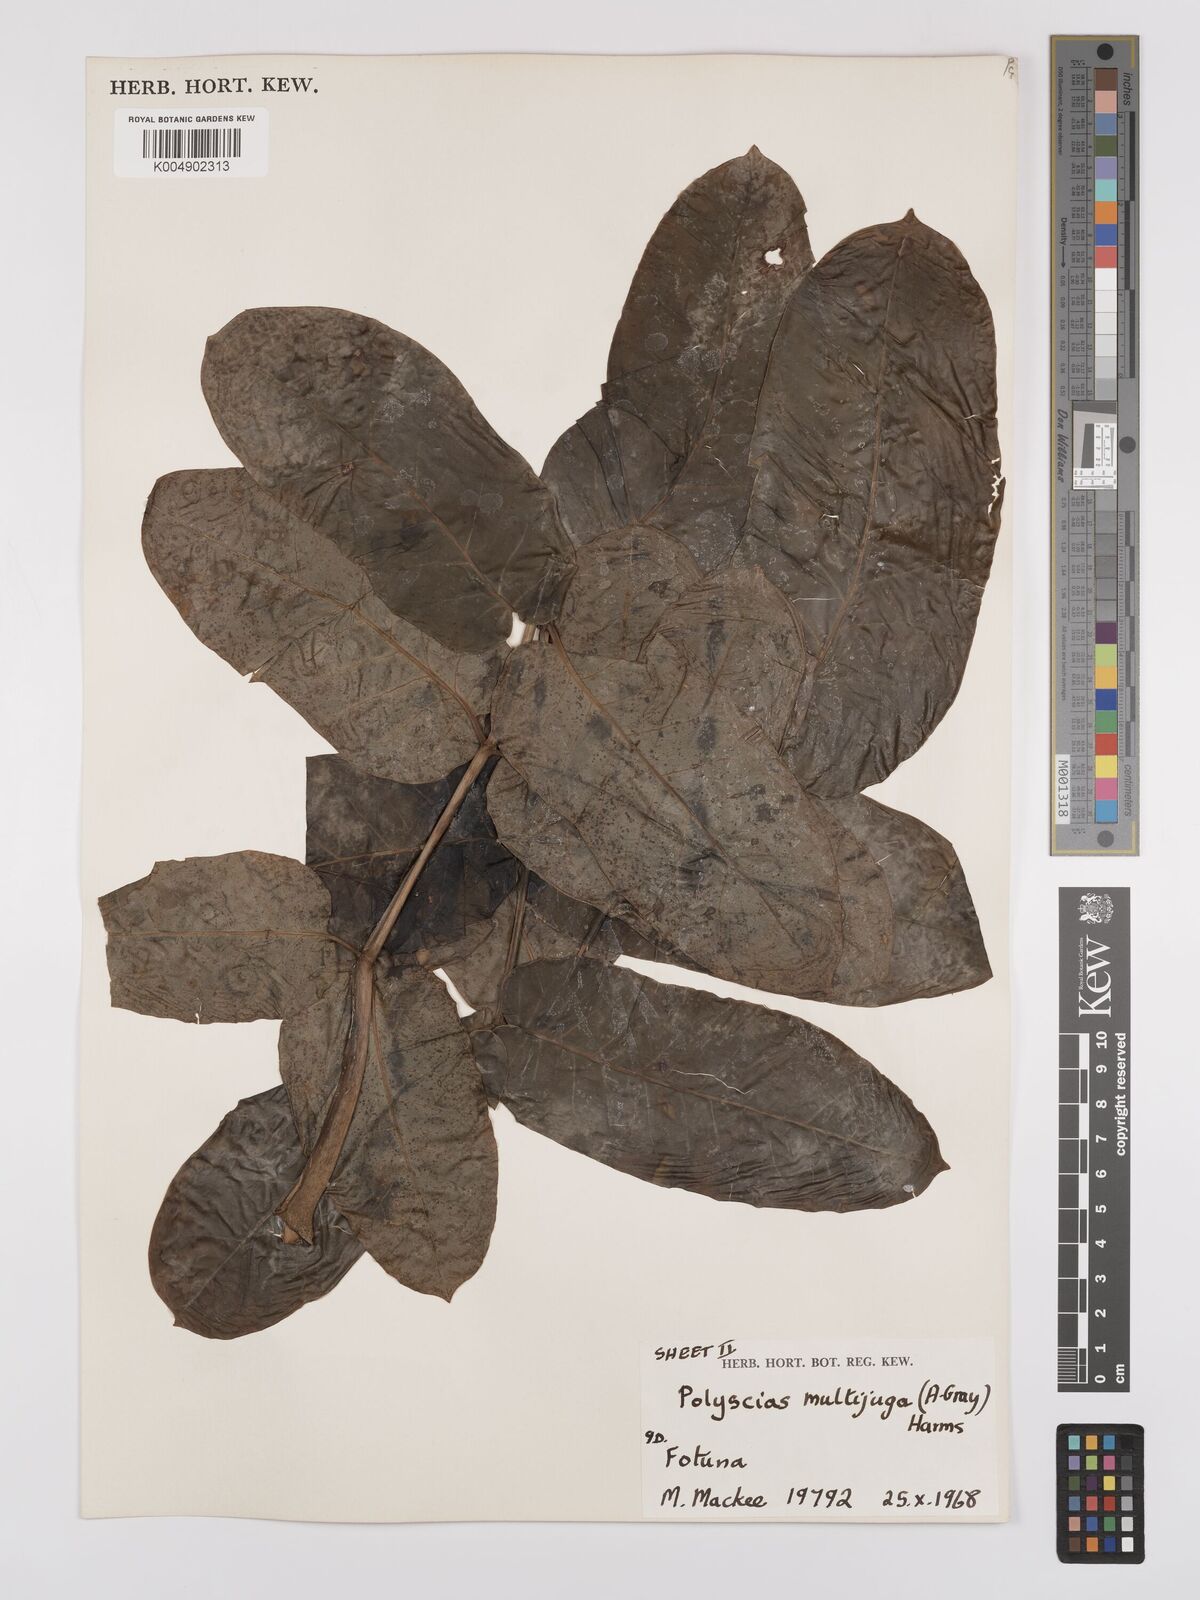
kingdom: Plantae
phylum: Tracheophyta
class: Magnoliopsida
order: Apiales
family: Araliaceae
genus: Polyscias
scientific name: Polyscias multijuga
